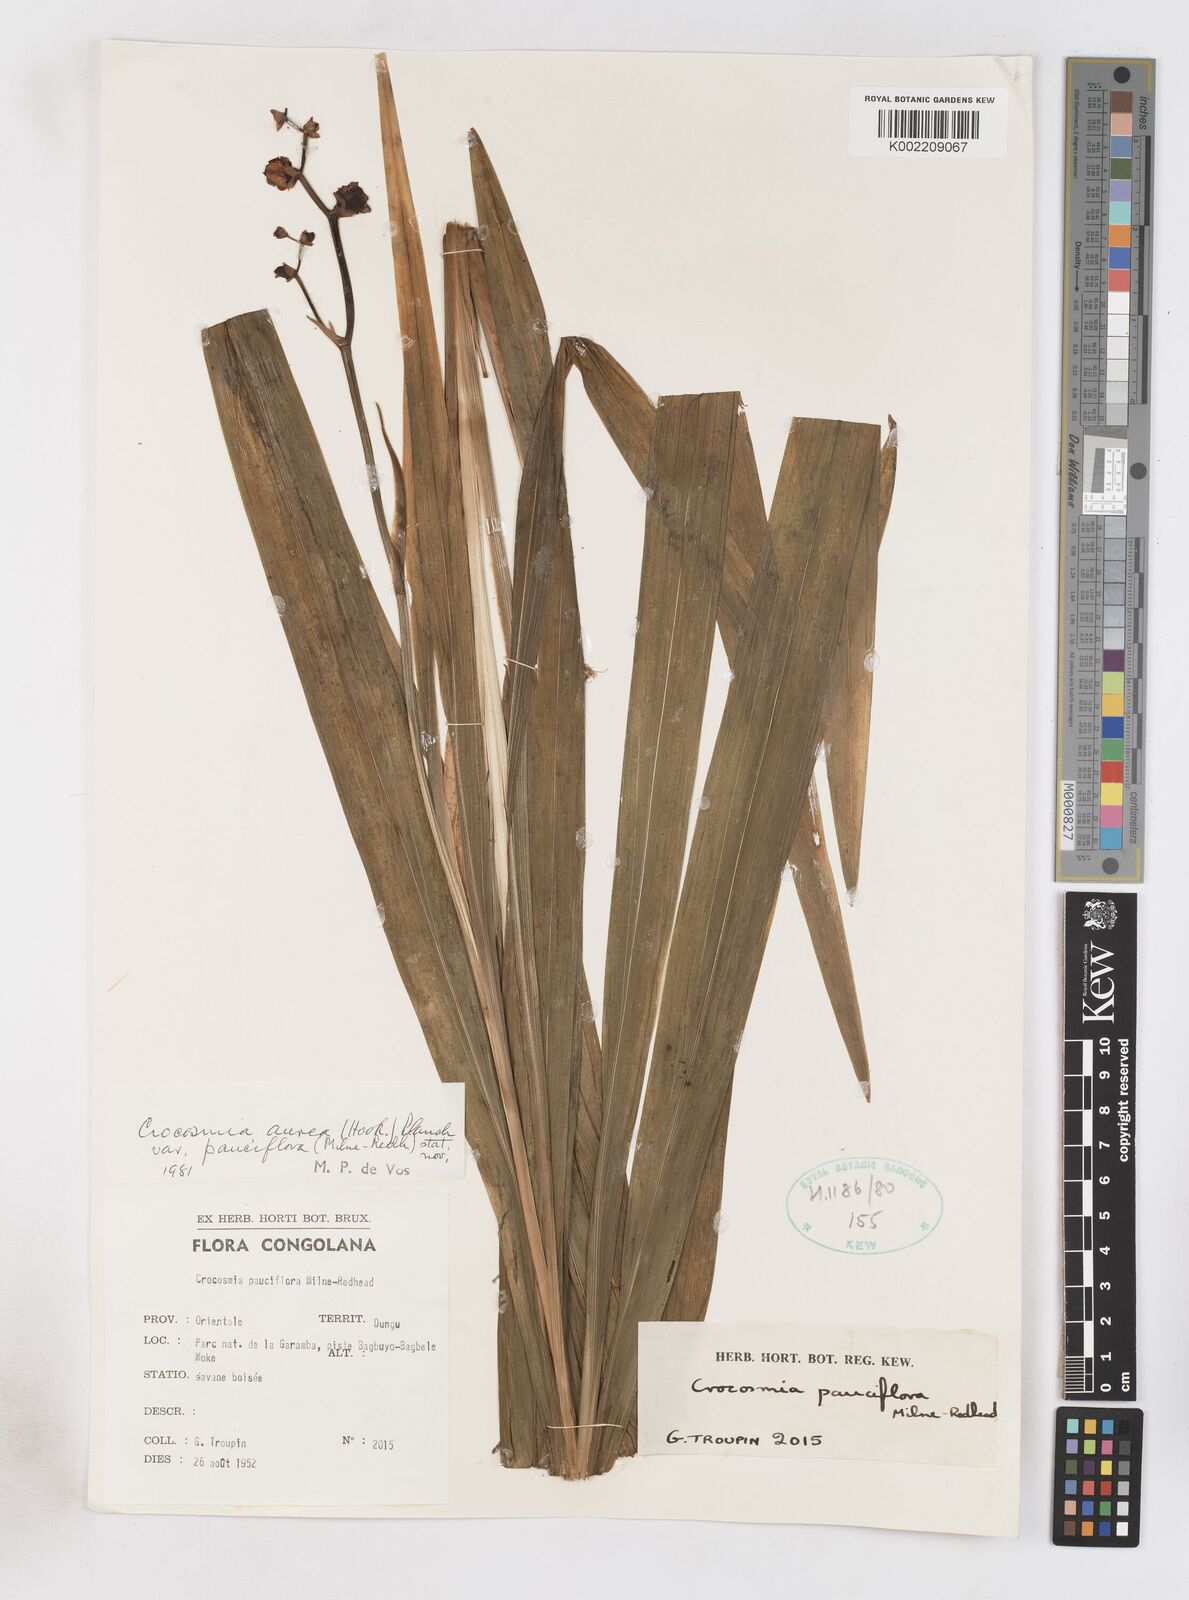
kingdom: Plantae
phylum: Tracheophyta
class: Liliopsida
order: Asparagales
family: Iridaceae
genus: Crocosmia
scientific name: Crocosmia aurea
